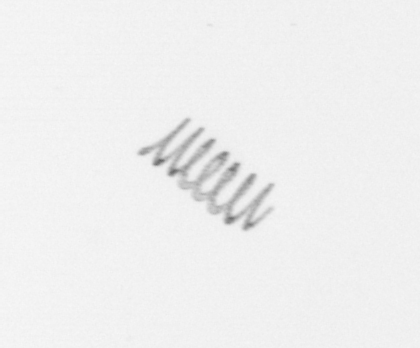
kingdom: Chromista
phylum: Ochrophyta
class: Bacillariophyceae
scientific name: Bacillariophyceae
